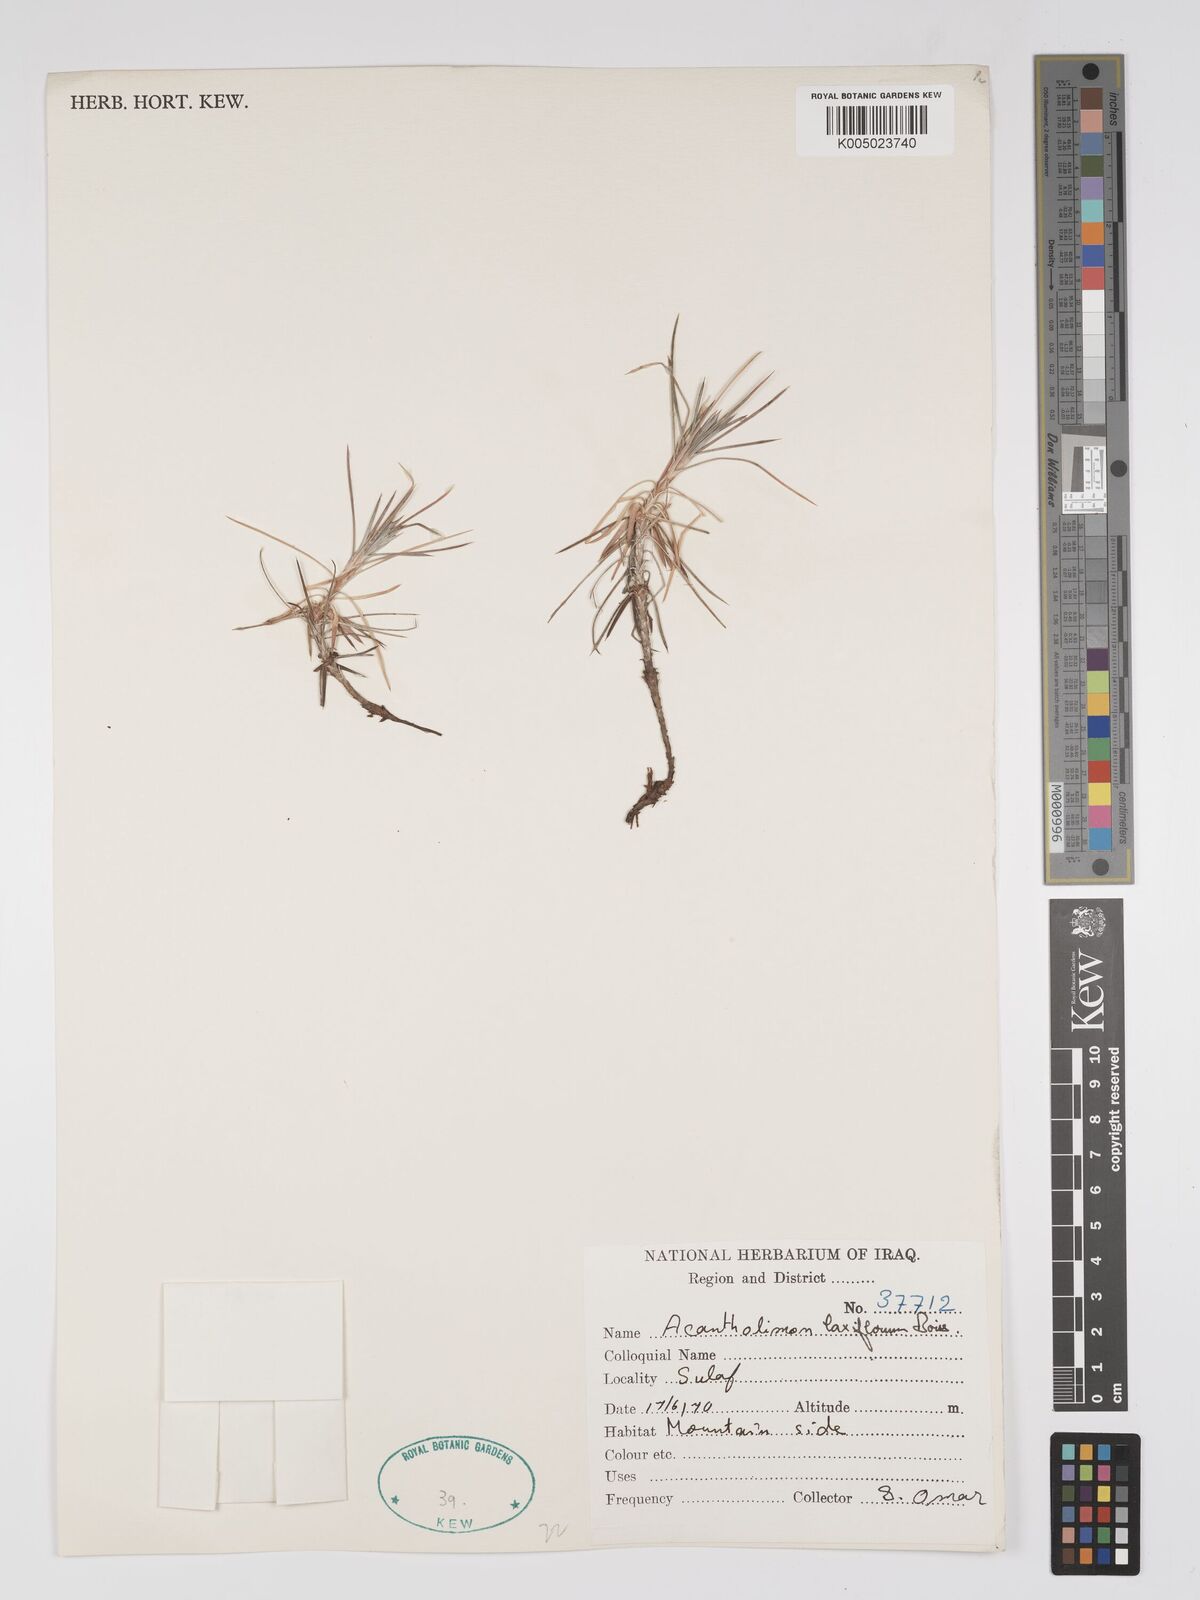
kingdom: Plantae
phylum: Tracheophyta
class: Magnoliopsida
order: Caryophyllales
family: Plumbaginaceae
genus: Acantholimon
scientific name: Acantholimon laxiflorum
